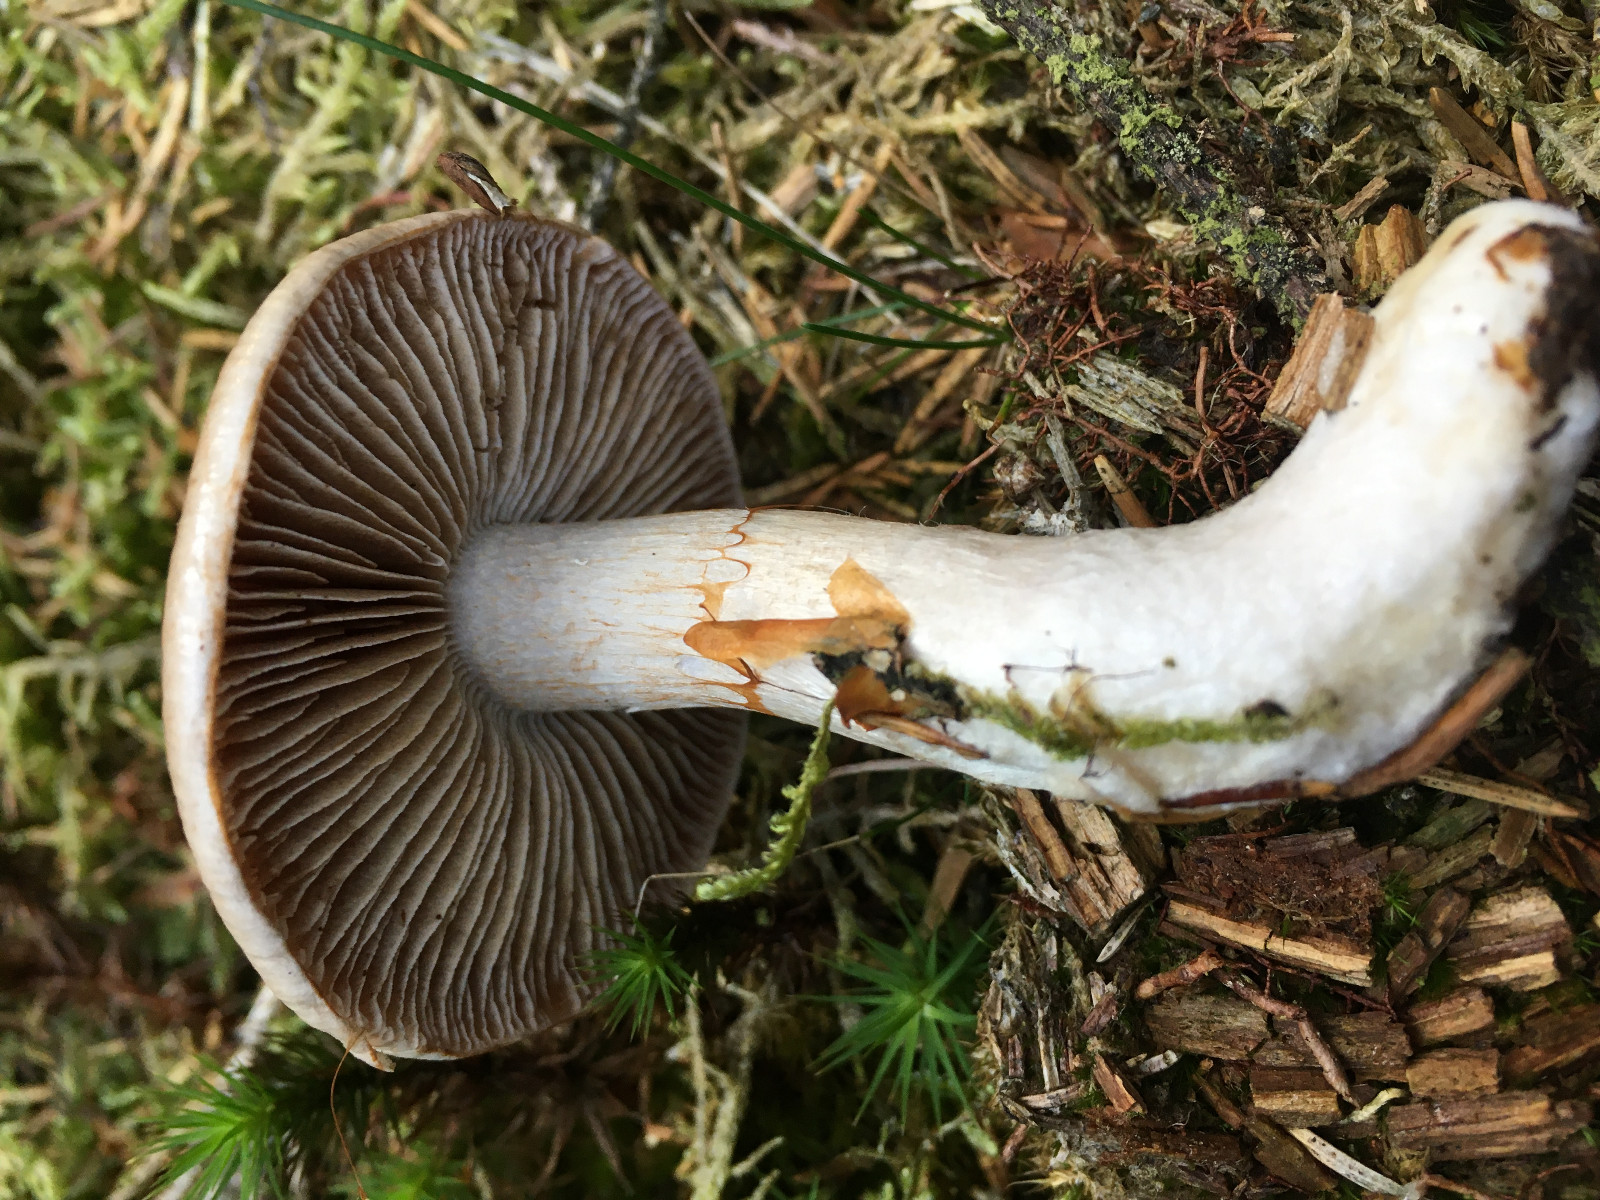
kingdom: Fungi
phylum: Basidiomycota
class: Agaricomycetes
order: Agaricales
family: Cortinariaceae
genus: Cortinarius
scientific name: Cortinarius
